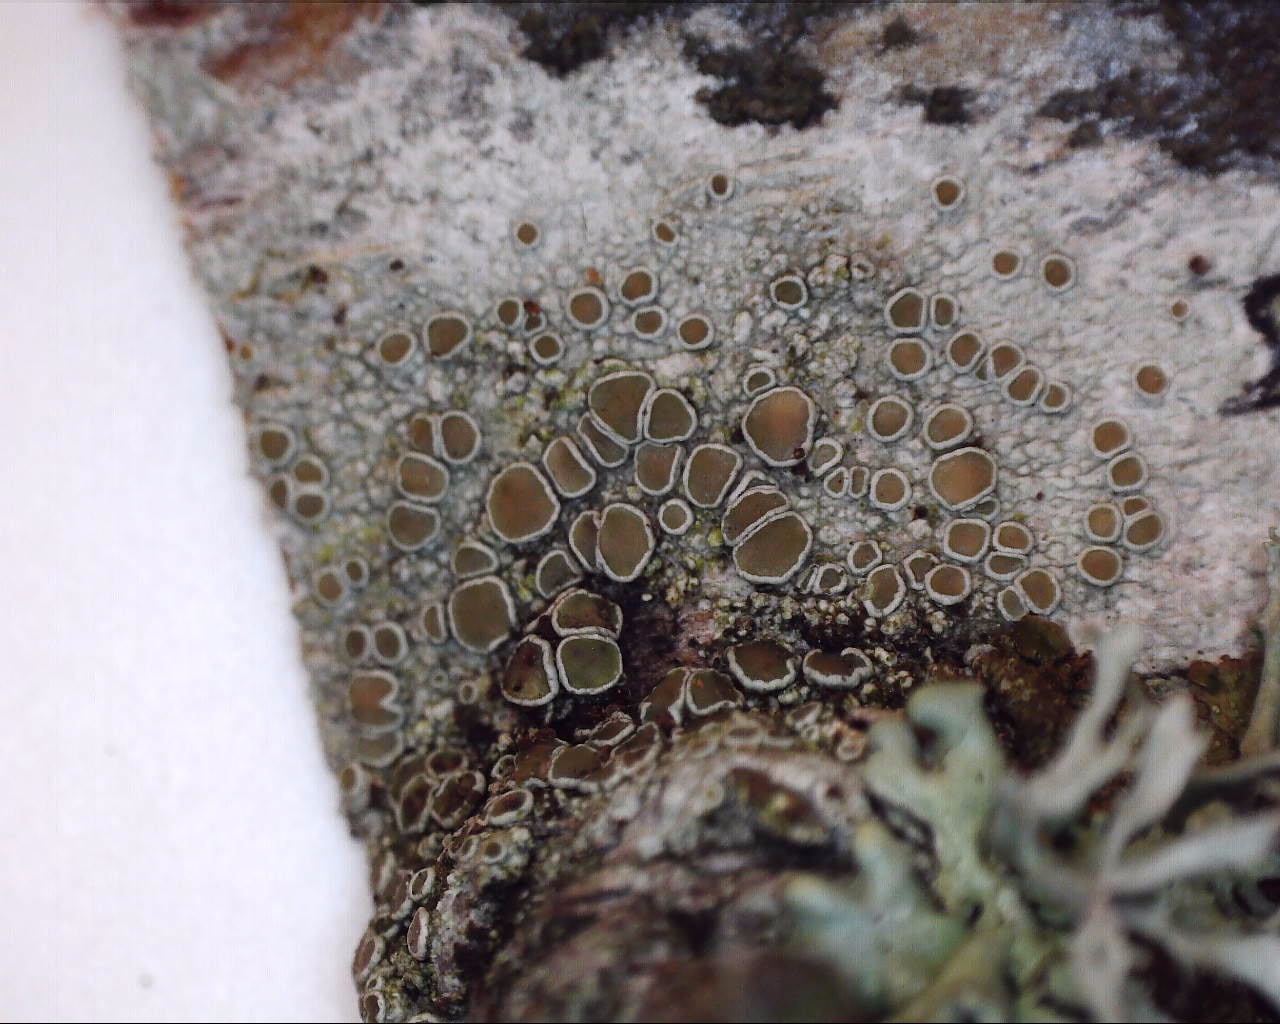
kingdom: Fungi
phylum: Ascomycota
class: Lecanoromycetes
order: Lecanorales
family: Lecanoraceae
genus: Lecanora
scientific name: Lecanora chlarotera
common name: brun kantskivelav
